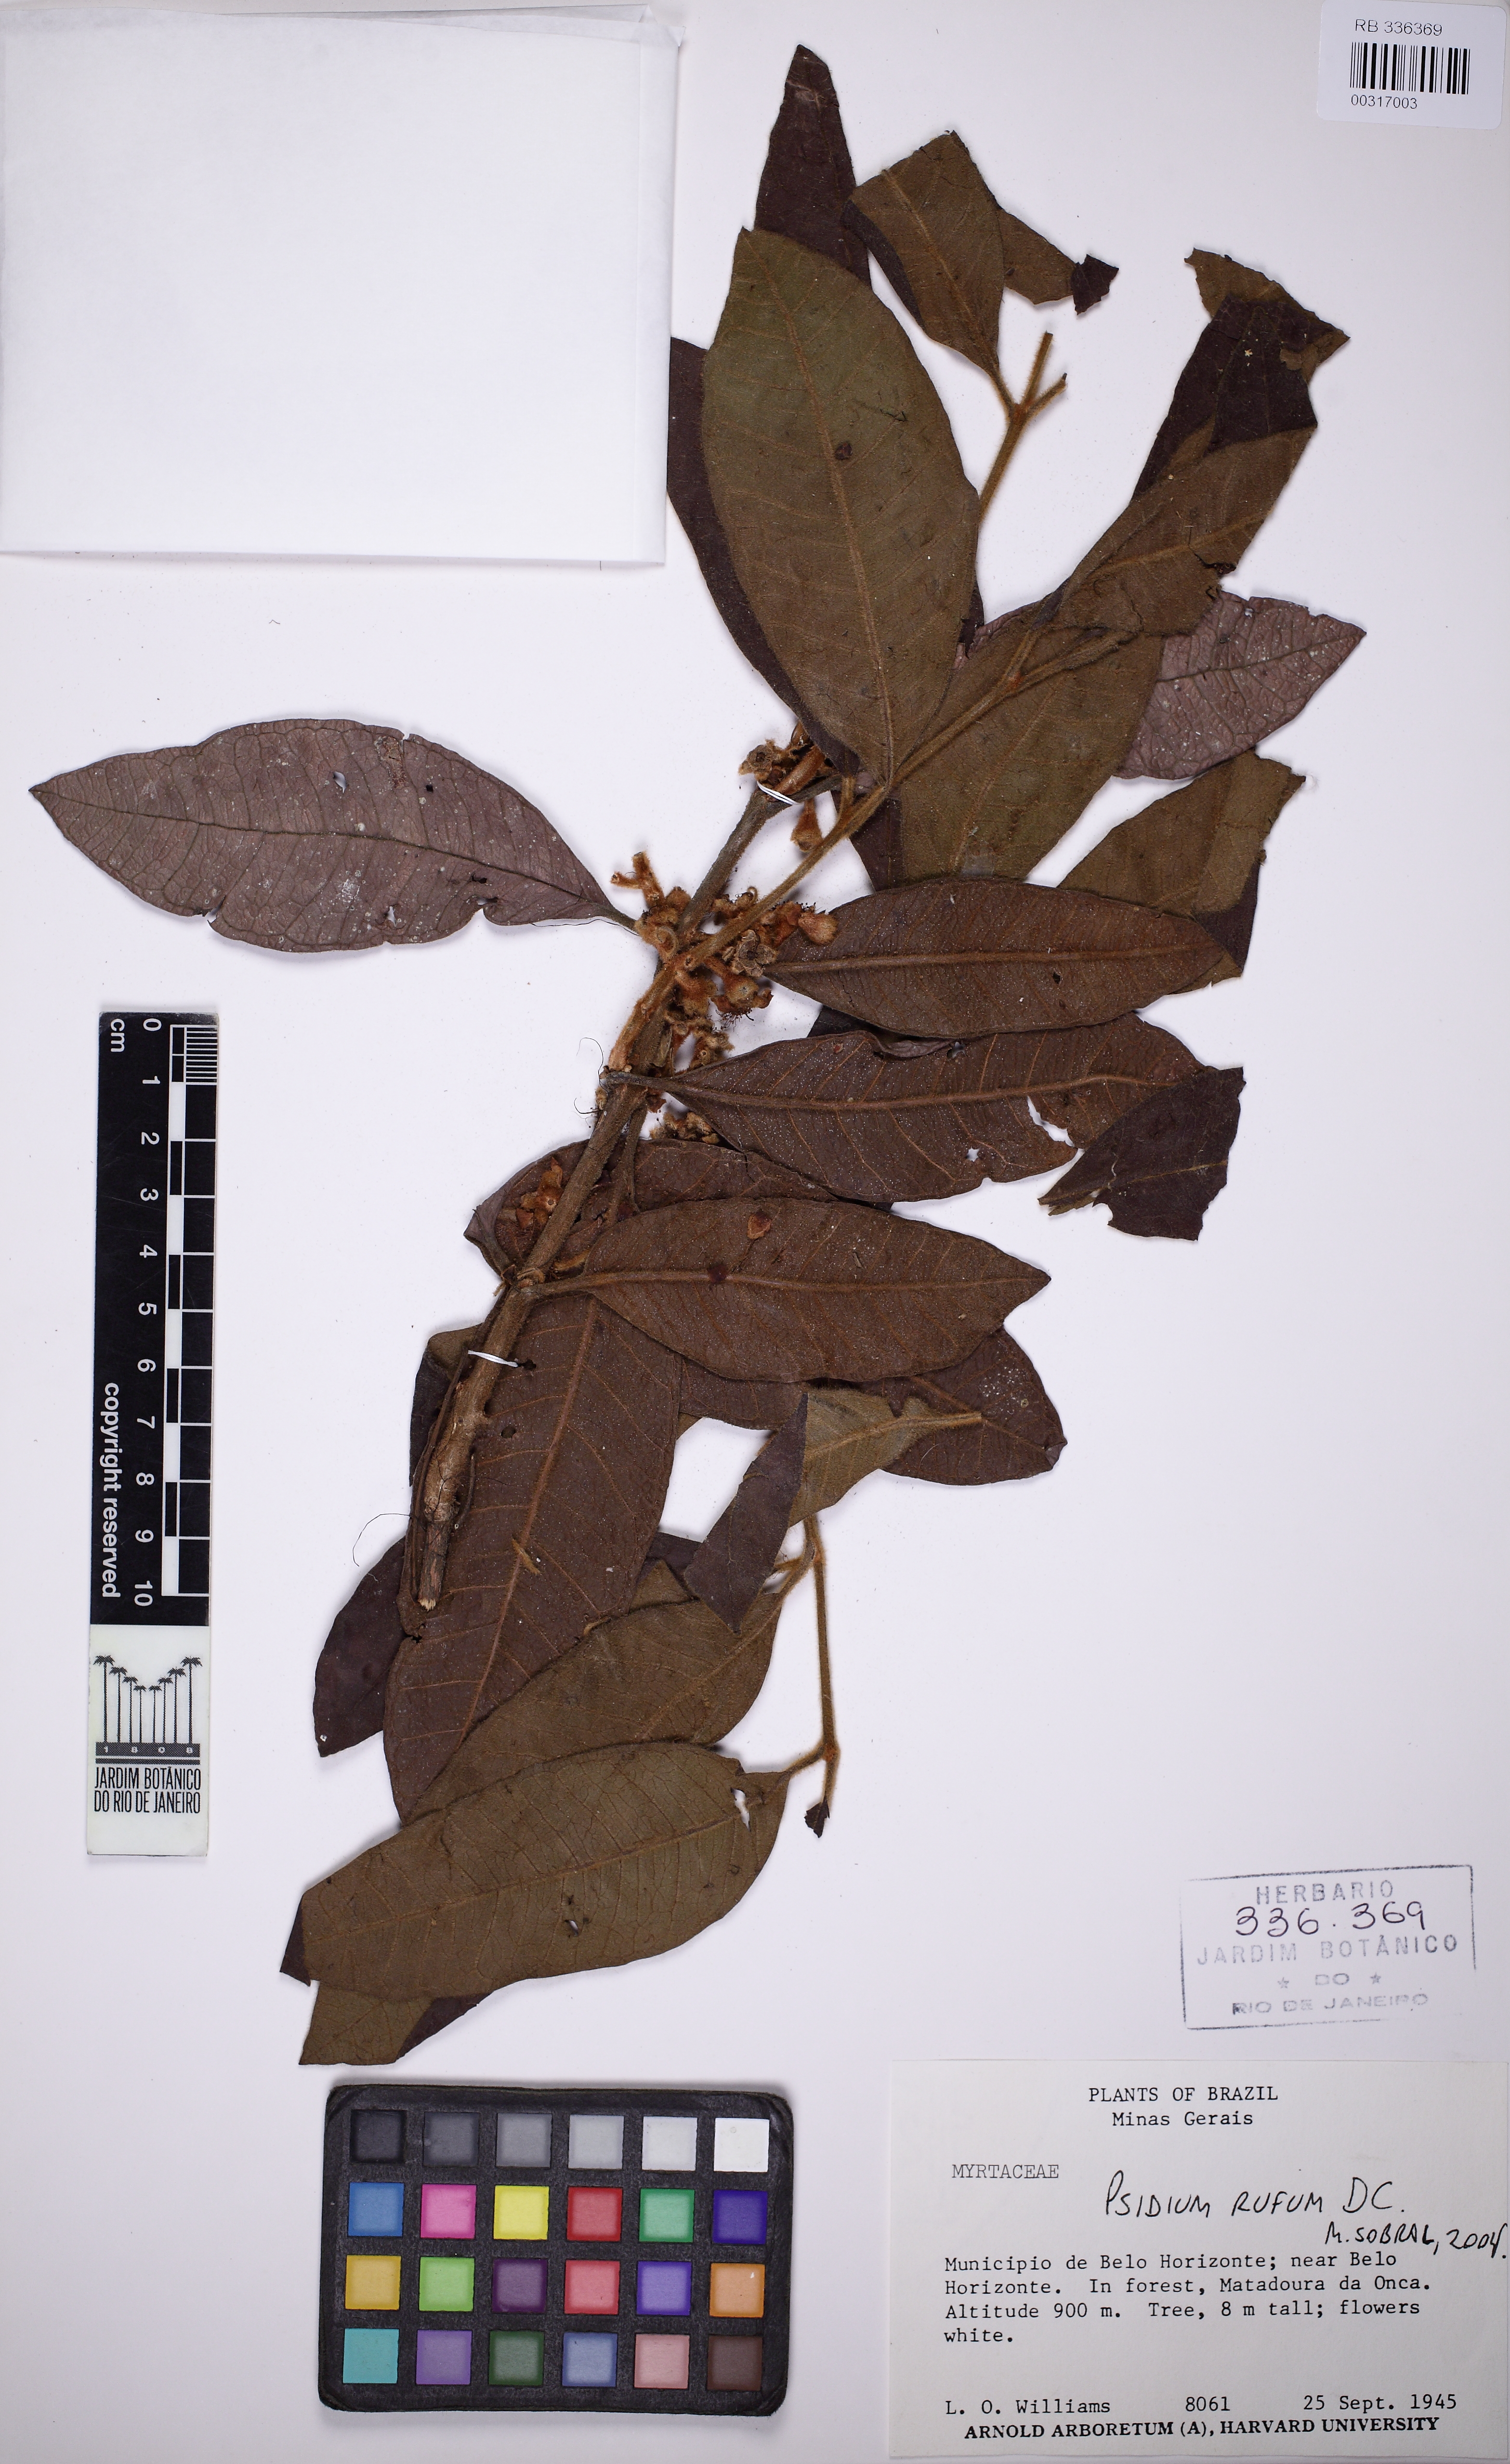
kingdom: Plantae
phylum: Tracheophyta
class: Magnoliopsida
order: Myrtales
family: Myrtaceae
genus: Psidium
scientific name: Psidium rufum
